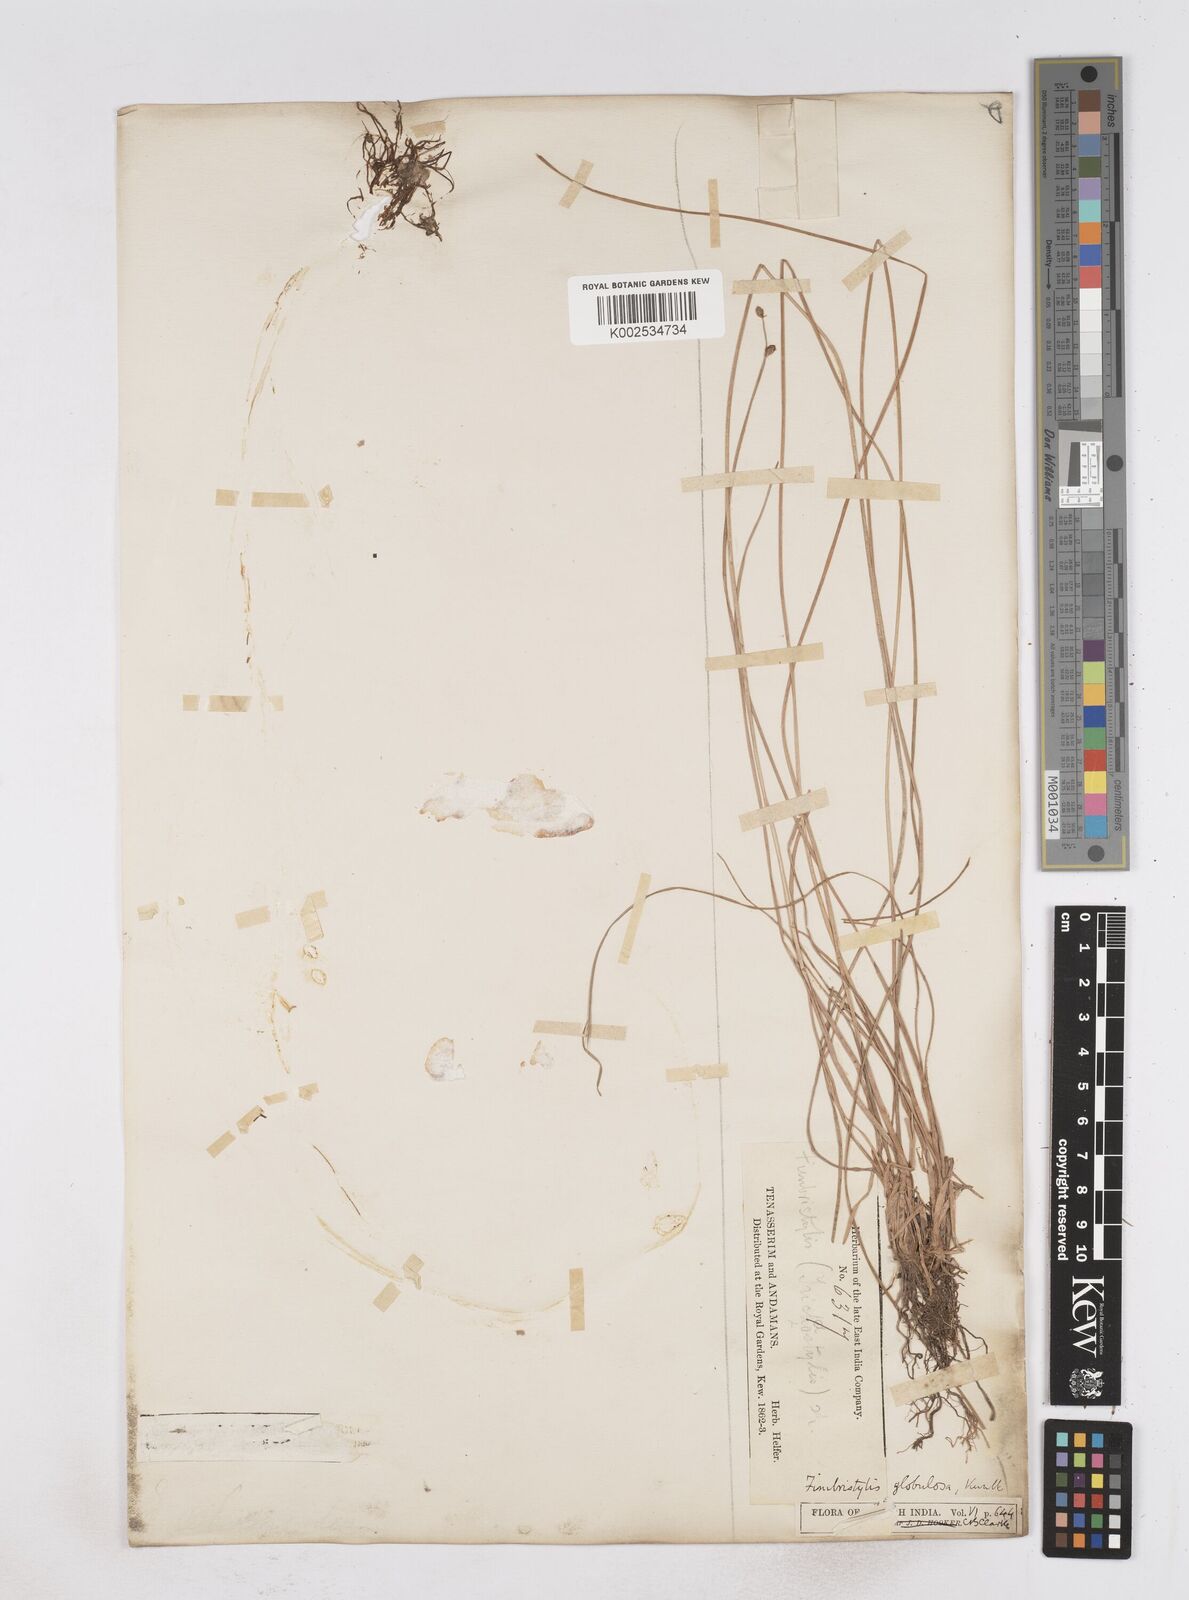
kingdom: Plantae
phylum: Tracheophyta
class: Liliopsida
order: Poales
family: Cyperaceae
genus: Fimbristylis
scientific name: Fimbristylis umbellaris
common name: Globular fimbristylis
